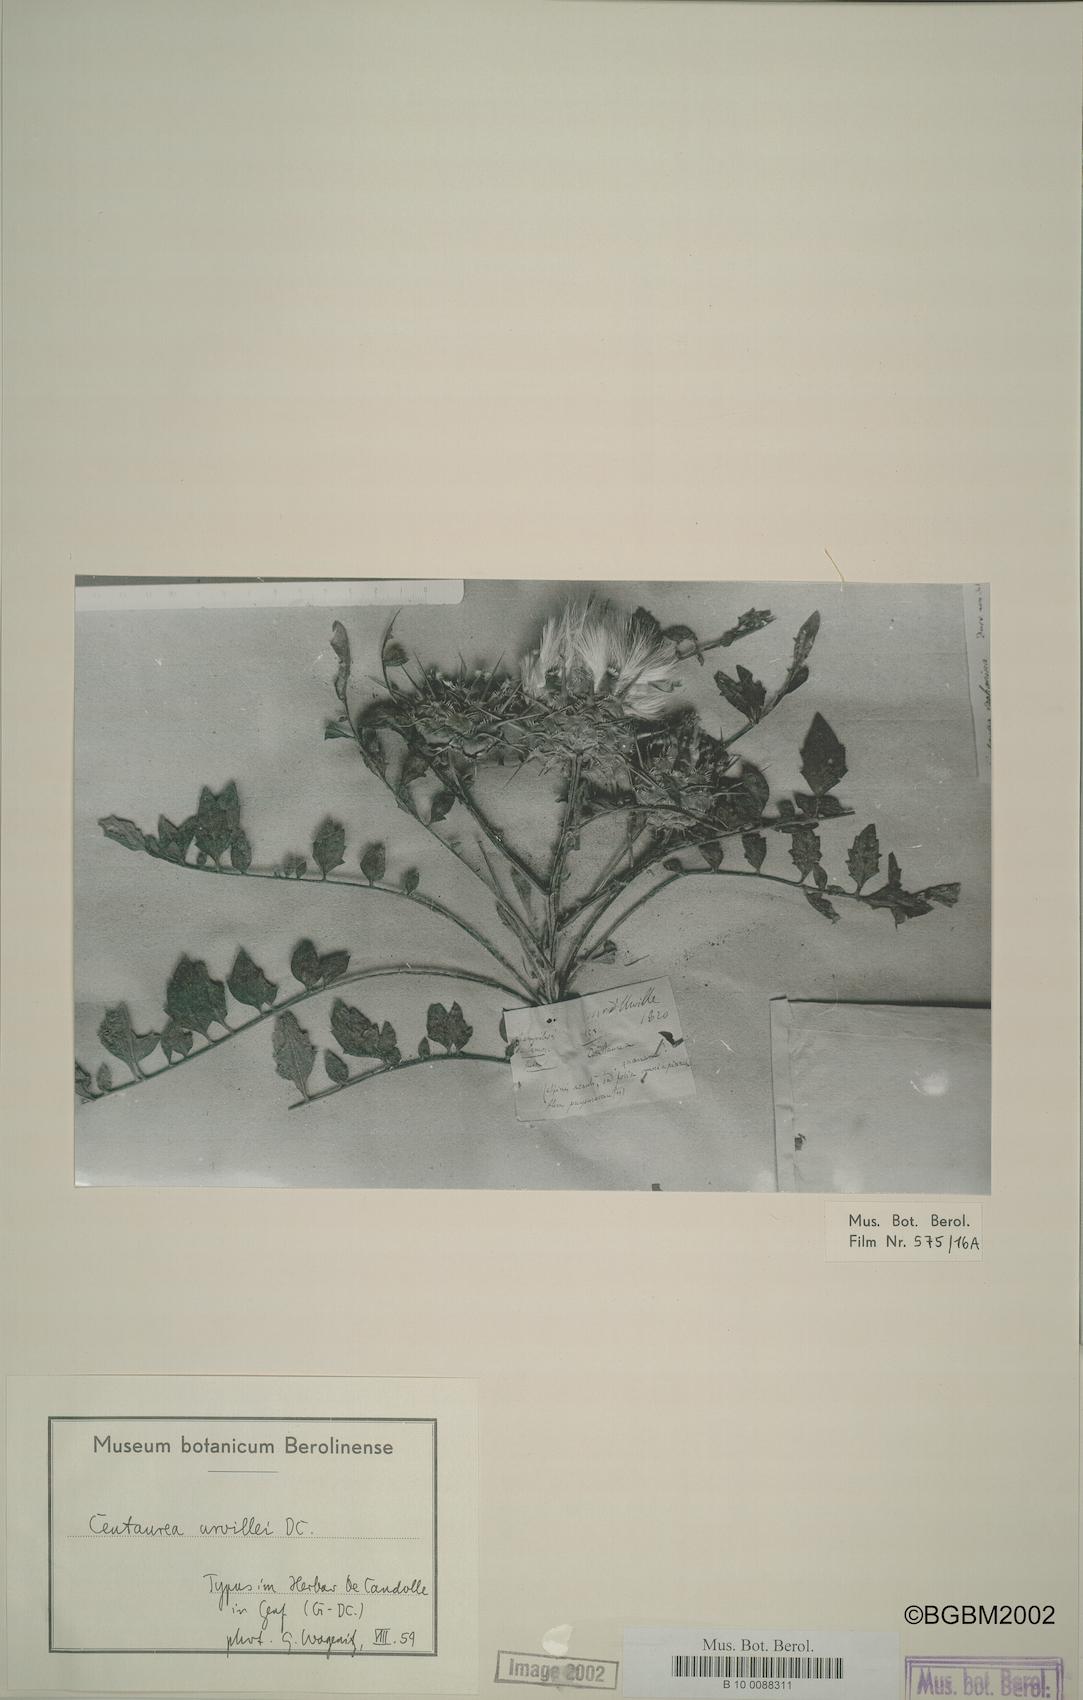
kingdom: Plantae
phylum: Tracheophyta
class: Magnoliopsida
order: Asterales
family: Asteraceae
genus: Centaurea
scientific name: Centaurea urvillei
